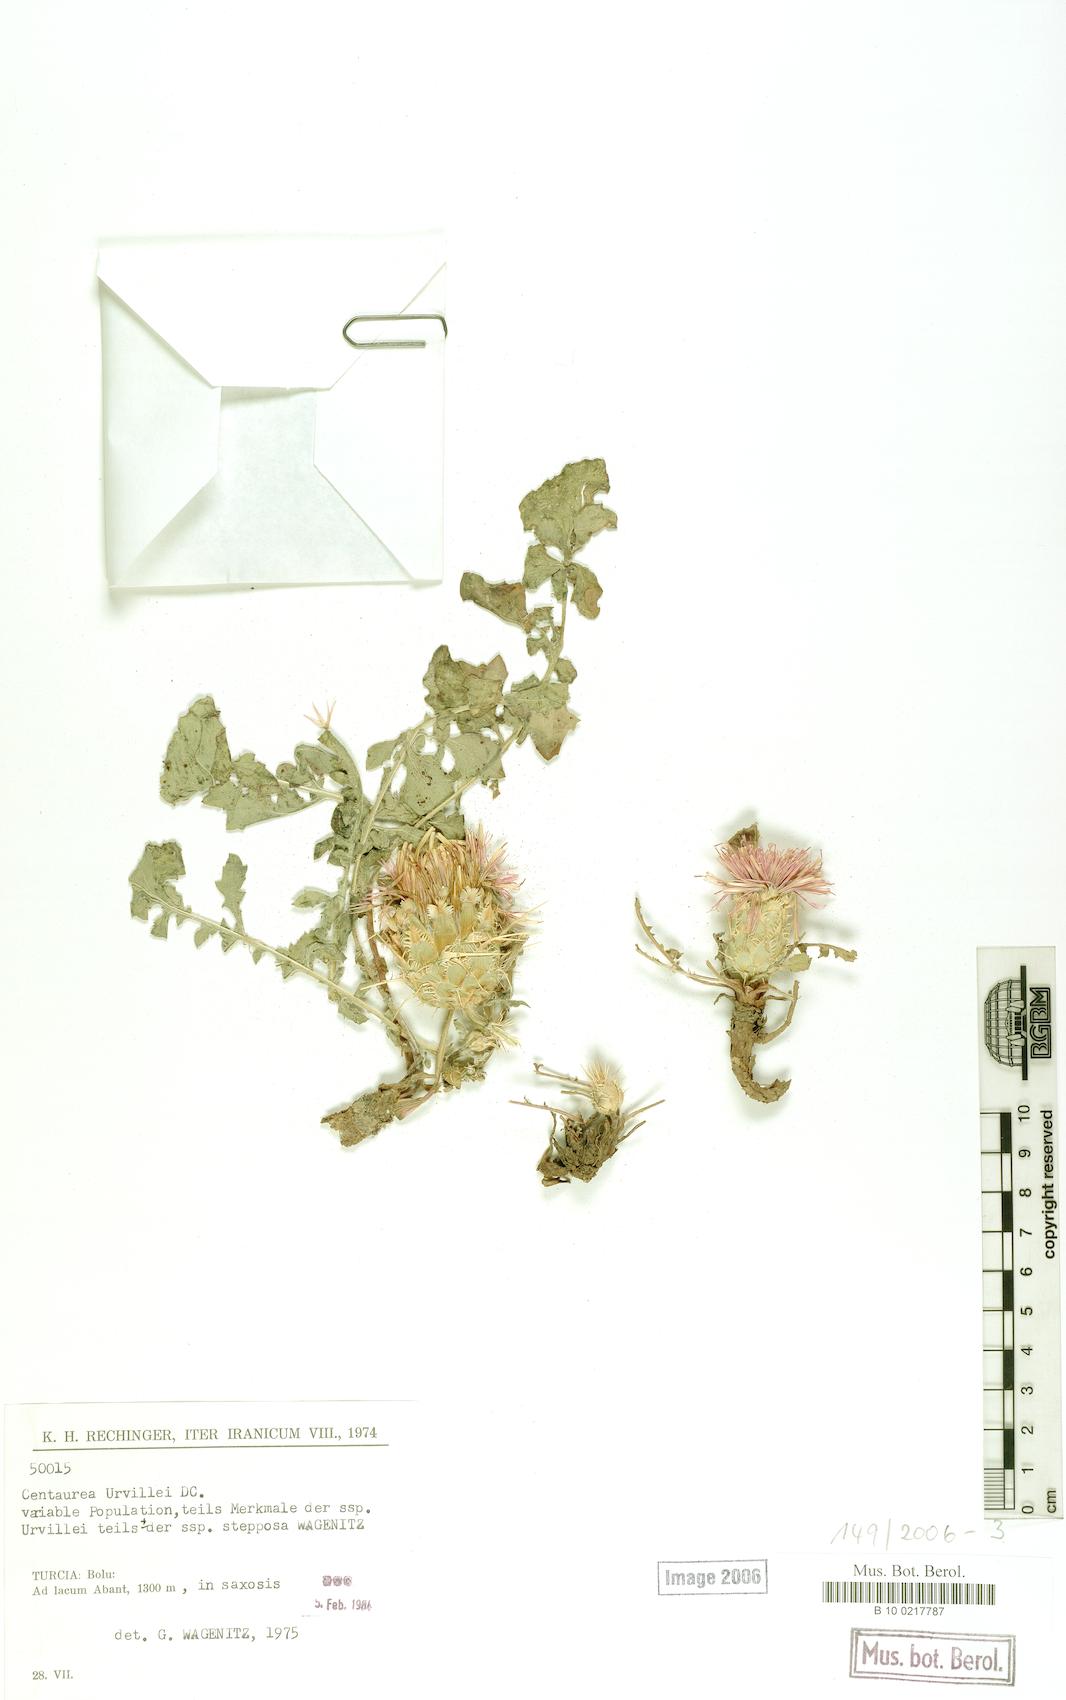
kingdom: Plantae
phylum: Tracheophyta
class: Magnoliopsida
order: Asterales
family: Asteraceae
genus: Centaurea
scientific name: Centaurea urvillei
